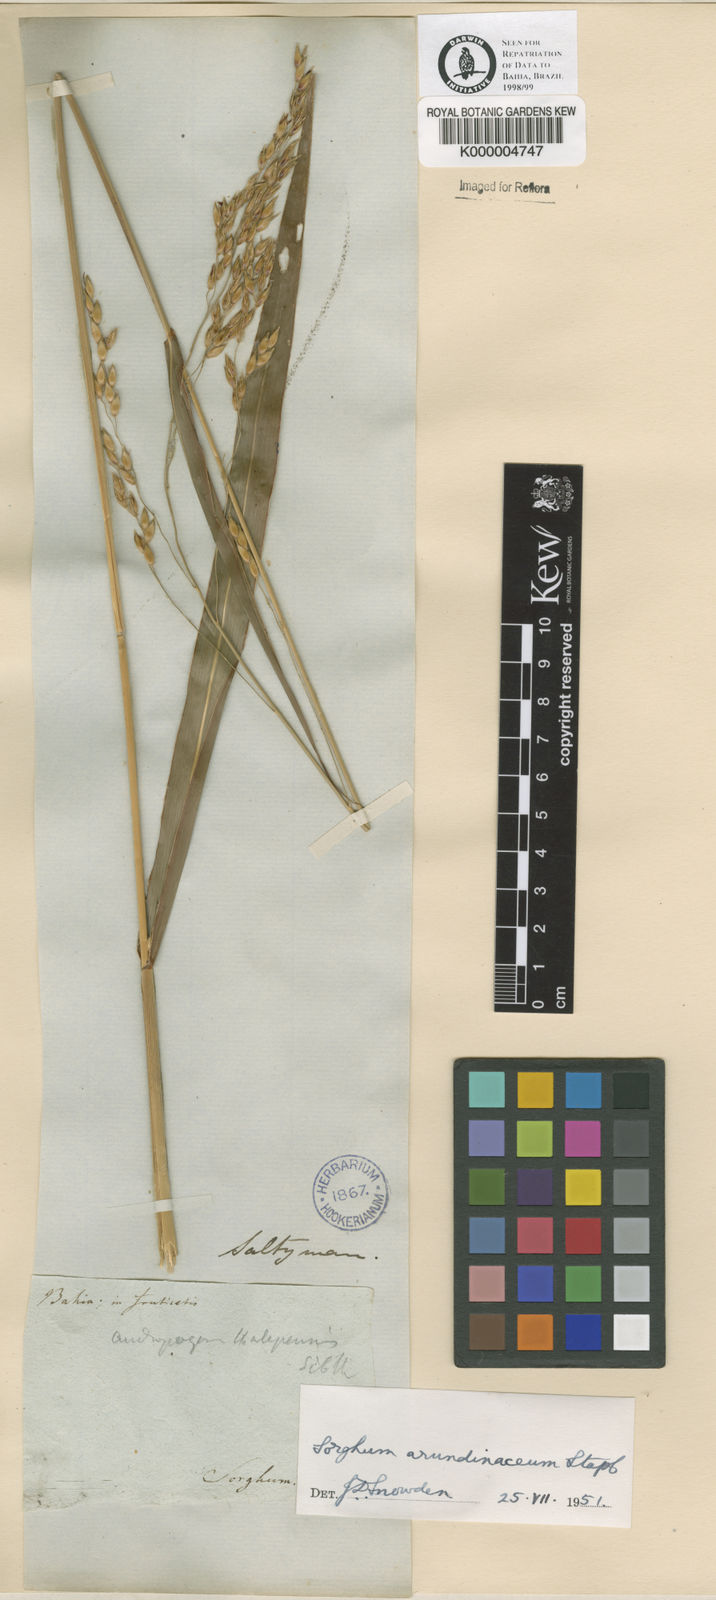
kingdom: Plantae
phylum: Tracheophyta
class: Liliopsida
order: Poales
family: Poaceae
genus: Sorghum
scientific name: Sorghum arundinaceum
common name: Sorghum
